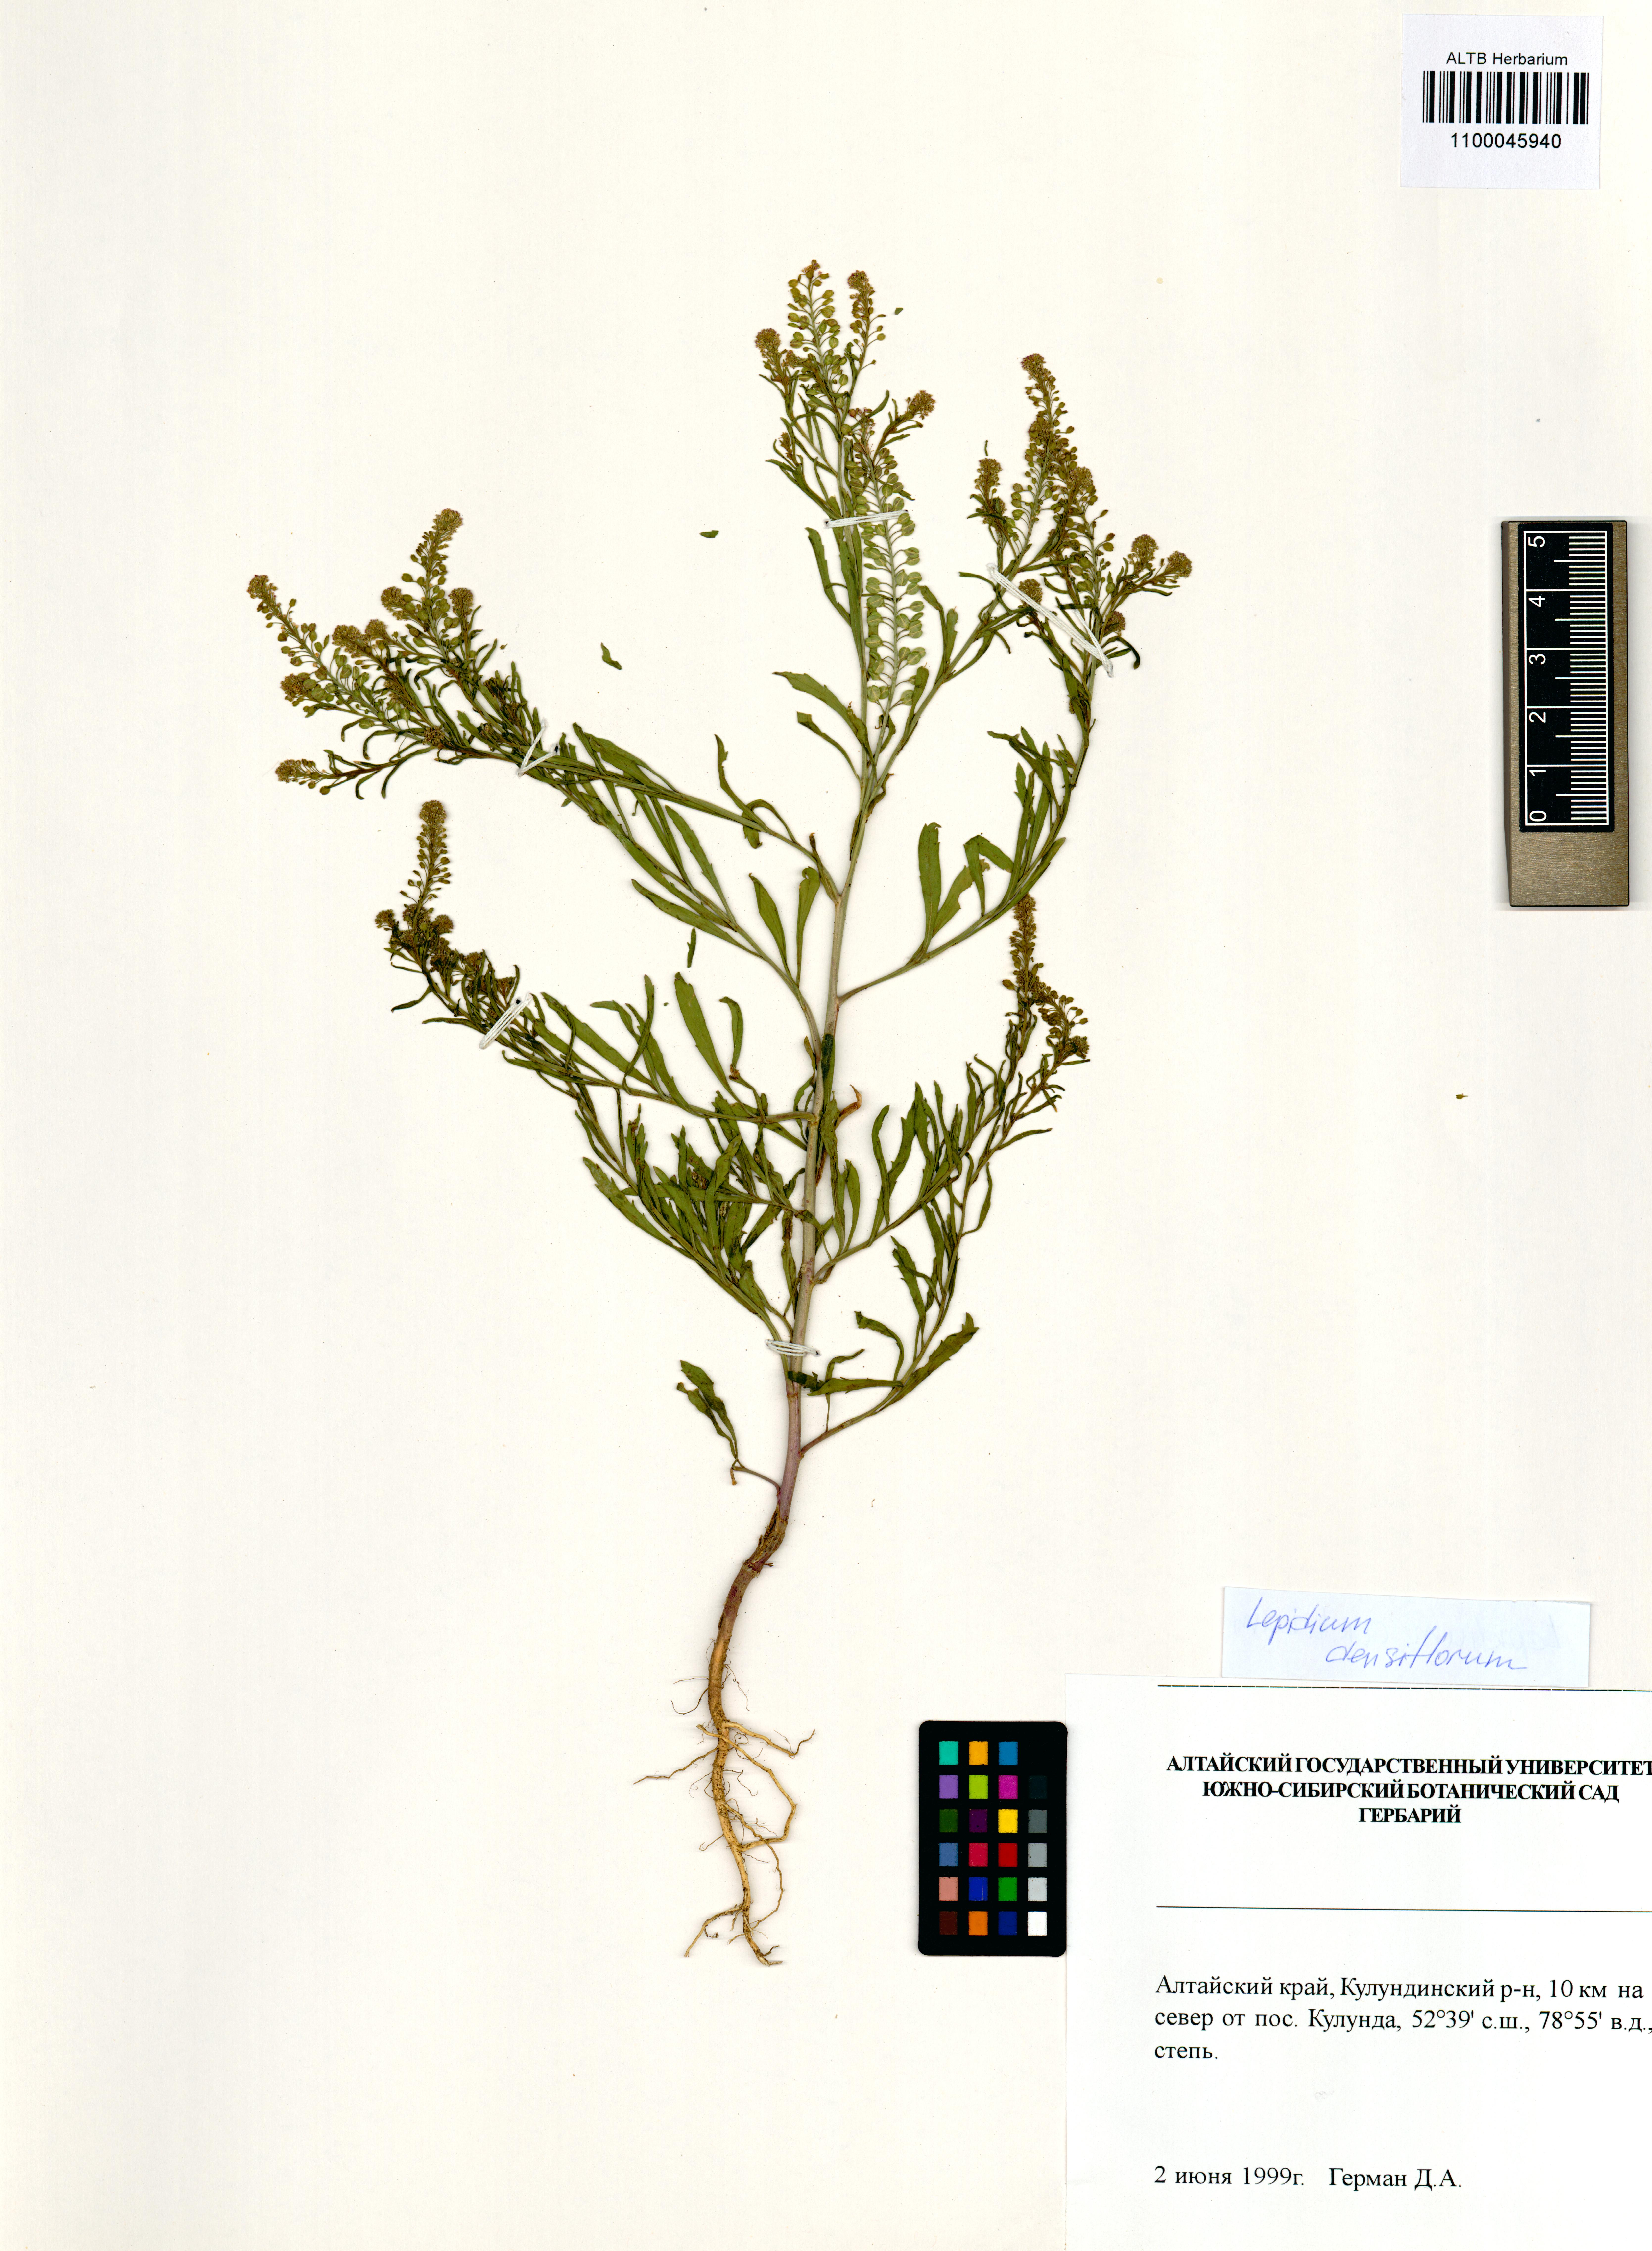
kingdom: Plantae
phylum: Tracheophyta
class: Magnoliopsida
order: Brassicales
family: Brassicaceae
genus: Lepidium
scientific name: Lepidium densiflorum
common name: Miner's pepperwort
